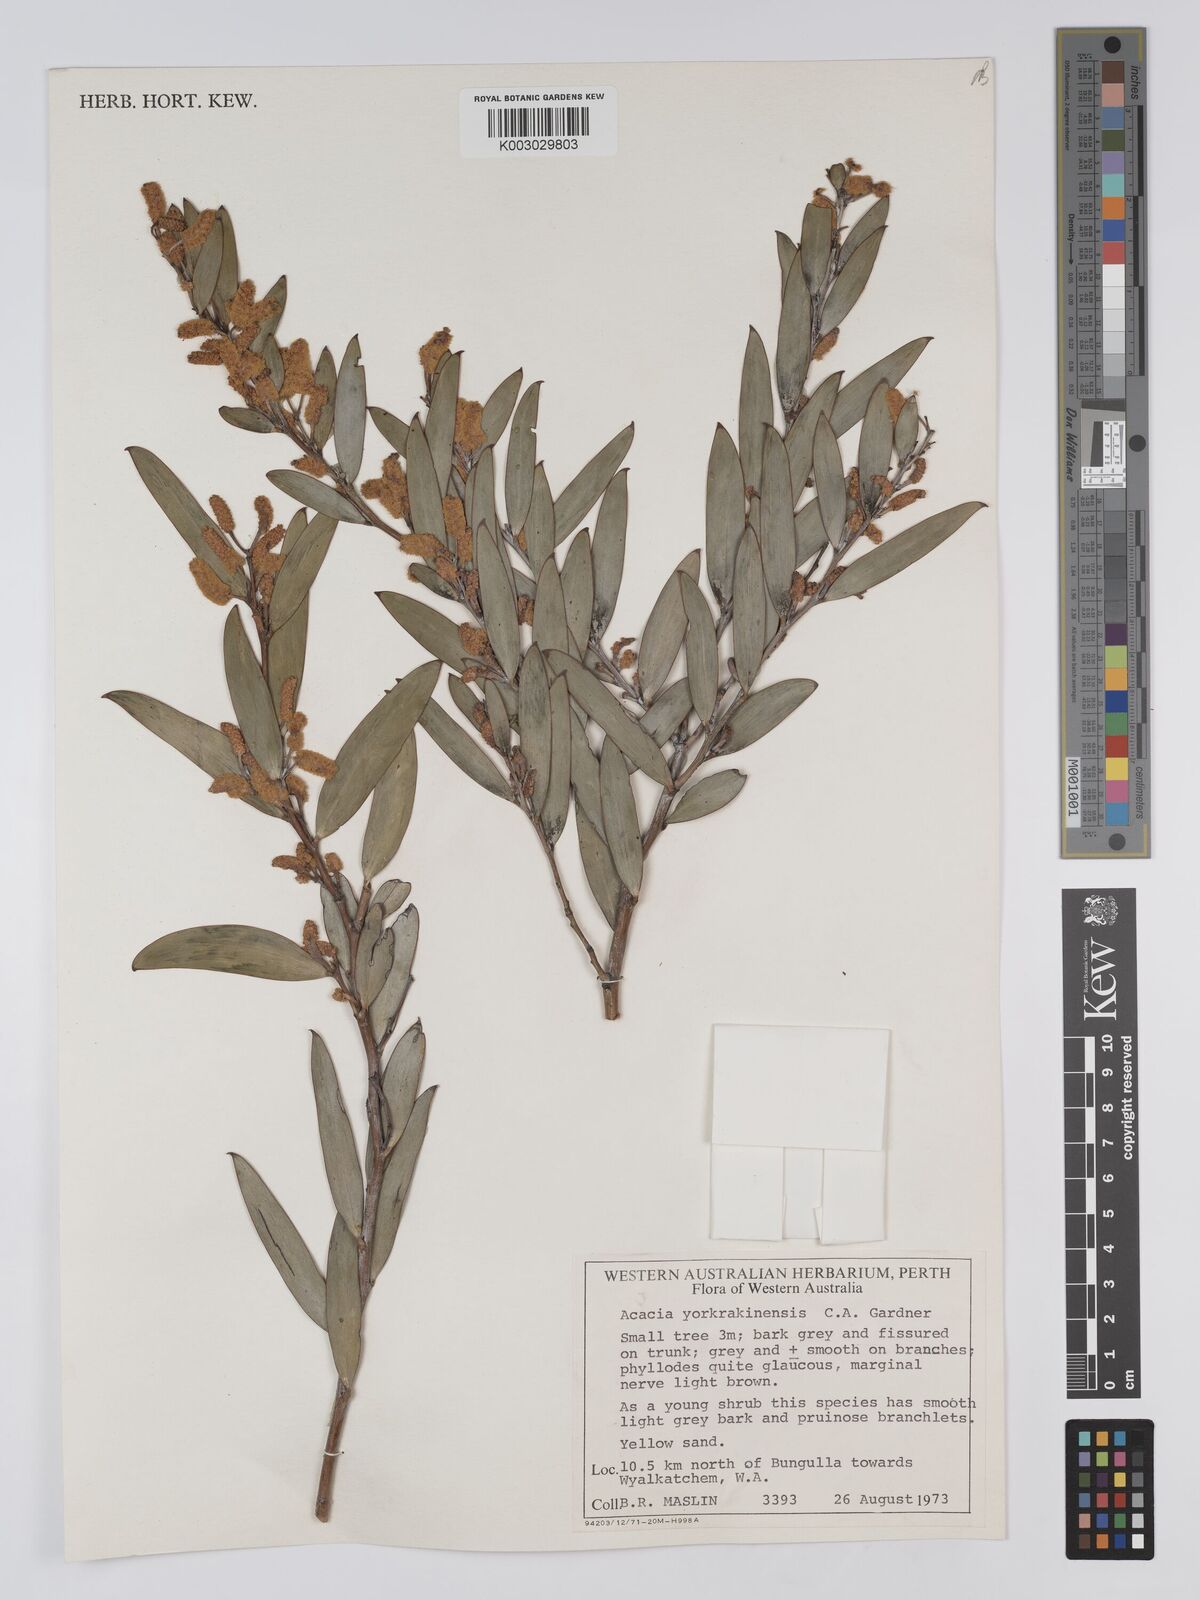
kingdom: Plantae
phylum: Tracheophyta
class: Magnoliopsida
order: Fabales
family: Fabaceae
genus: Acacia
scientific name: Acacia yorkrakinensis
